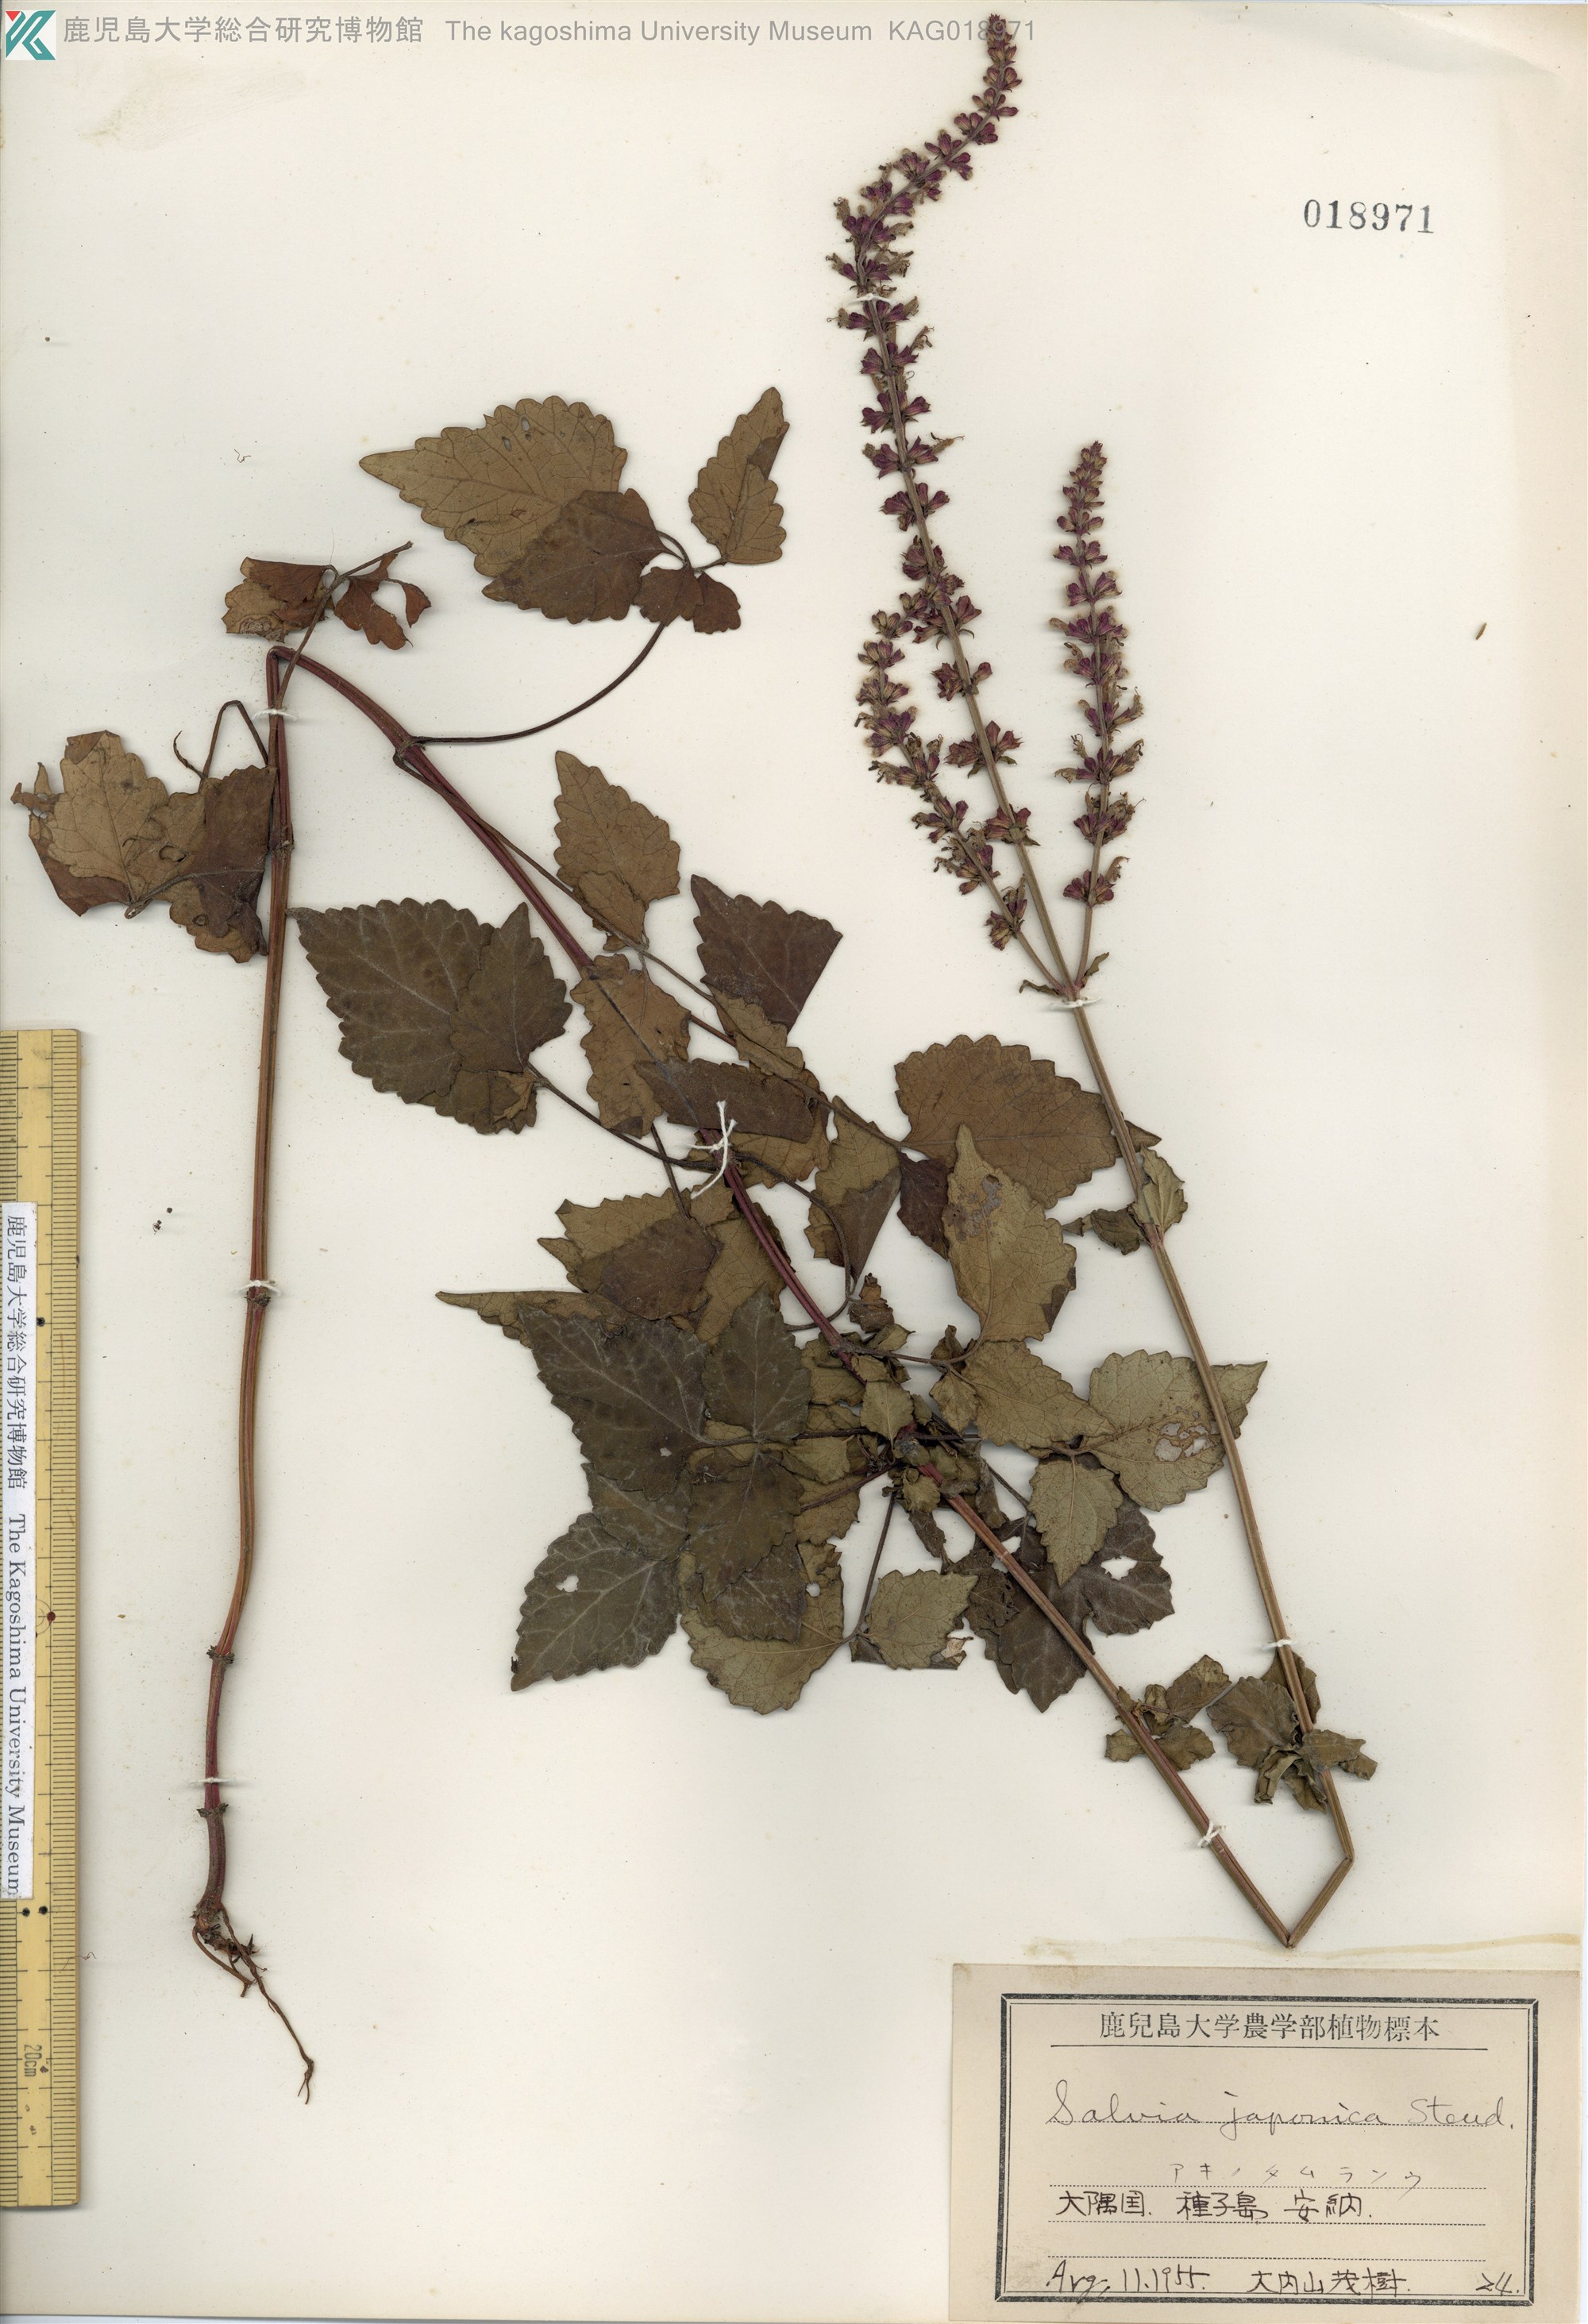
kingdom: Plantae
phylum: Tracheophyta
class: Magnoliopsida
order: Lamiales
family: Lamiaceae
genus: Salvia
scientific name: Salvia japonica
